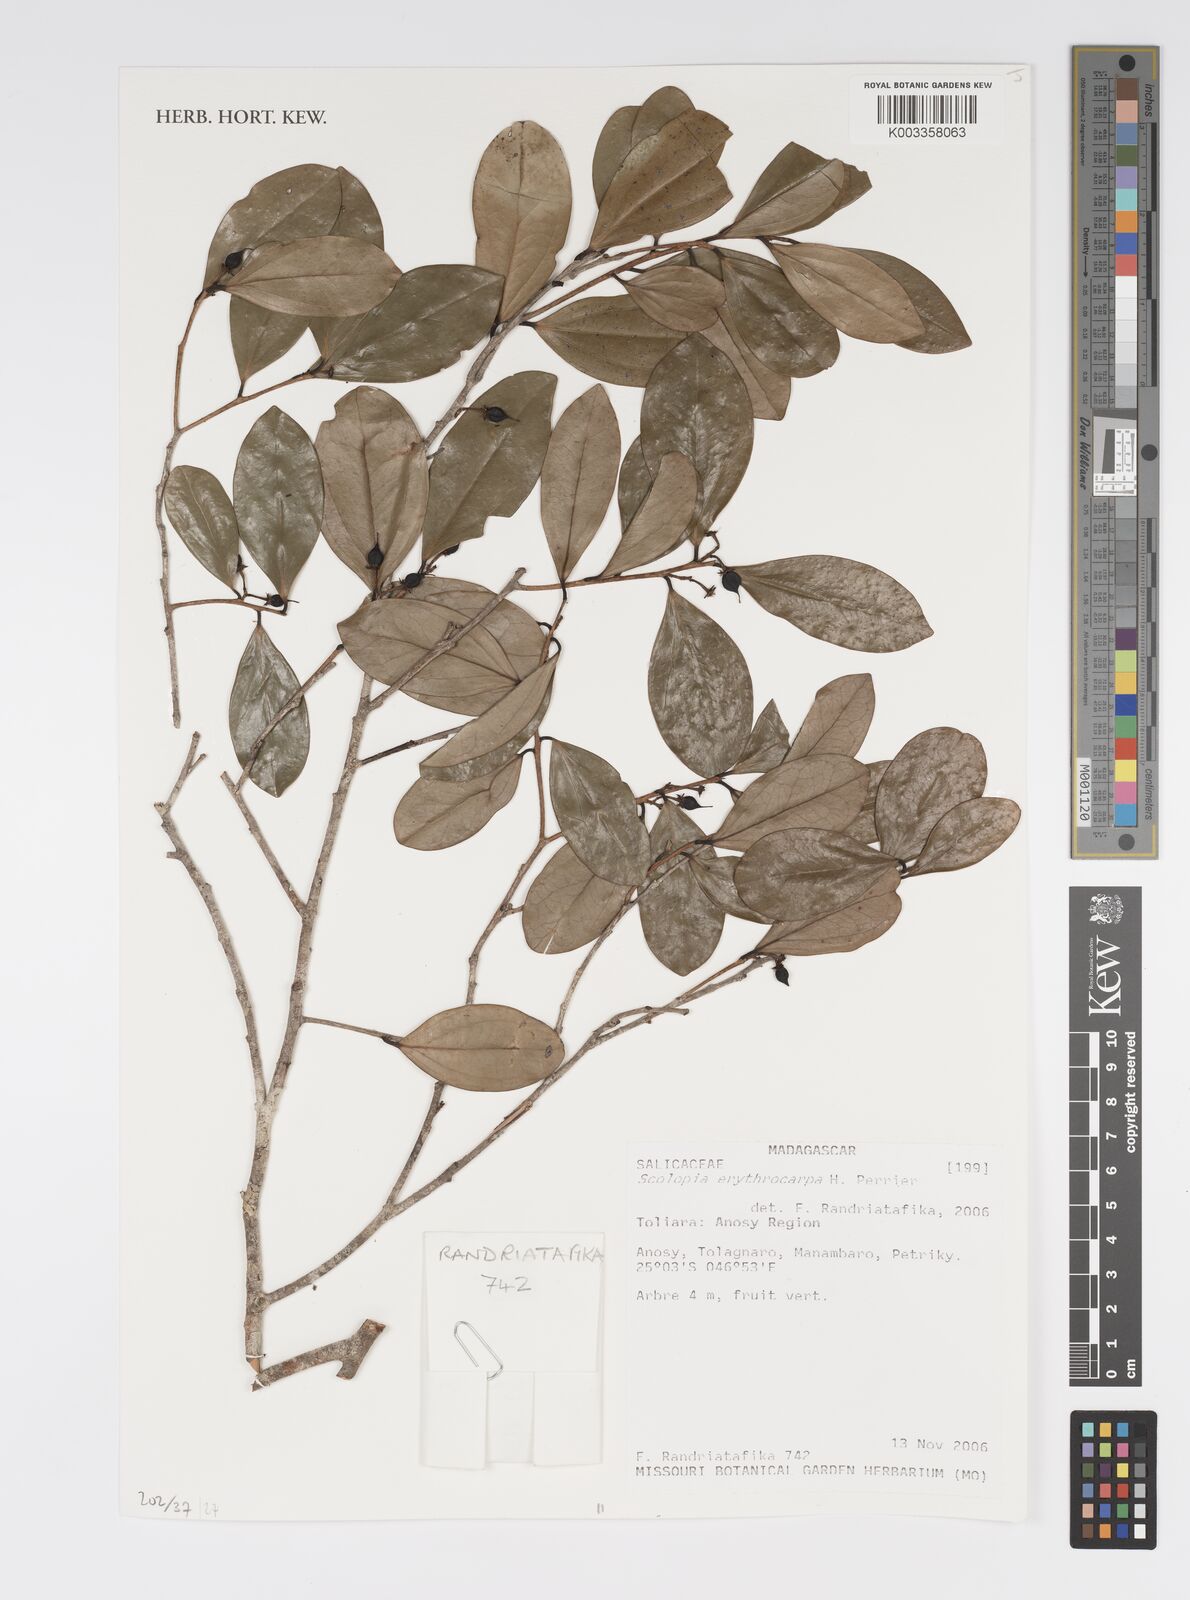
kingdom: Plantae
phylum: Tracheophyta
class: Magnoliopsida
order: Malpighiales
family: Salicaceae
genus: Scolopia
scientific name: Scolopia erythrocarpa
